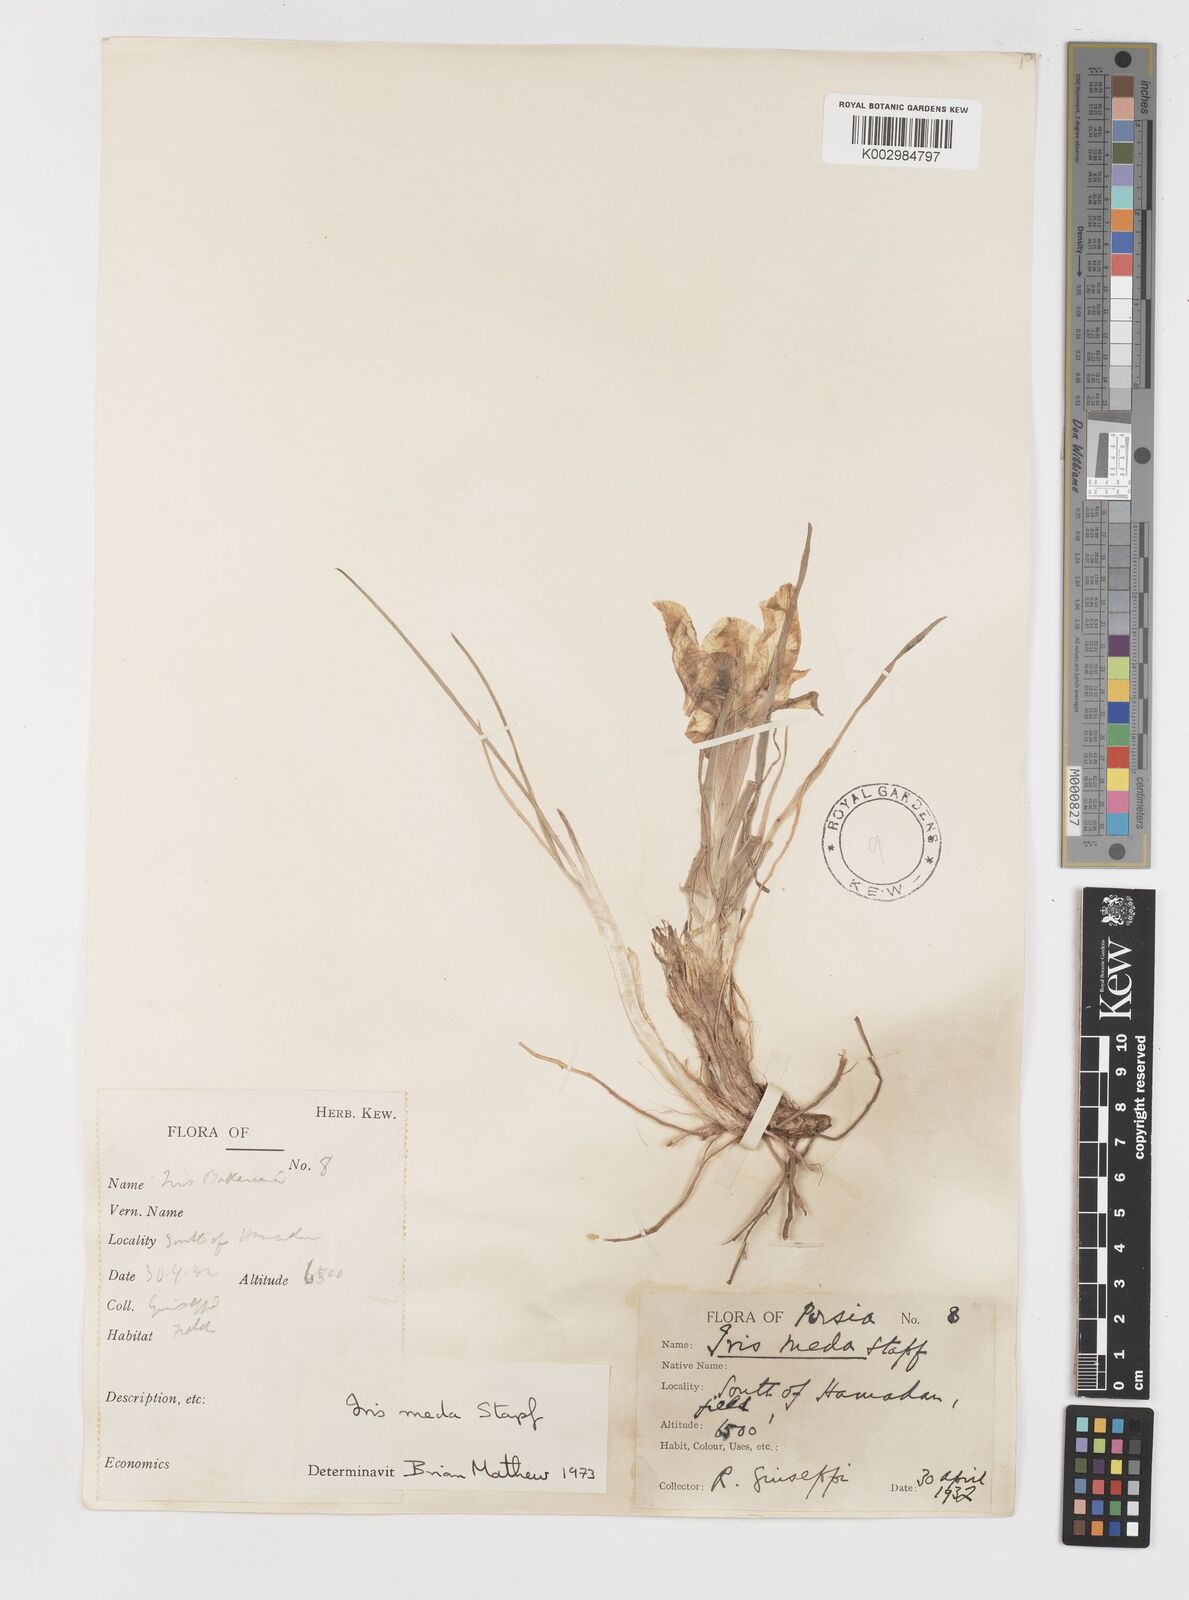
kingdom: Plantae
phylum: Tracheophyta
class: Liliopsida
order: Asparagales
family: Iridaceae
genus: Iris
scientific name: Iris meda
